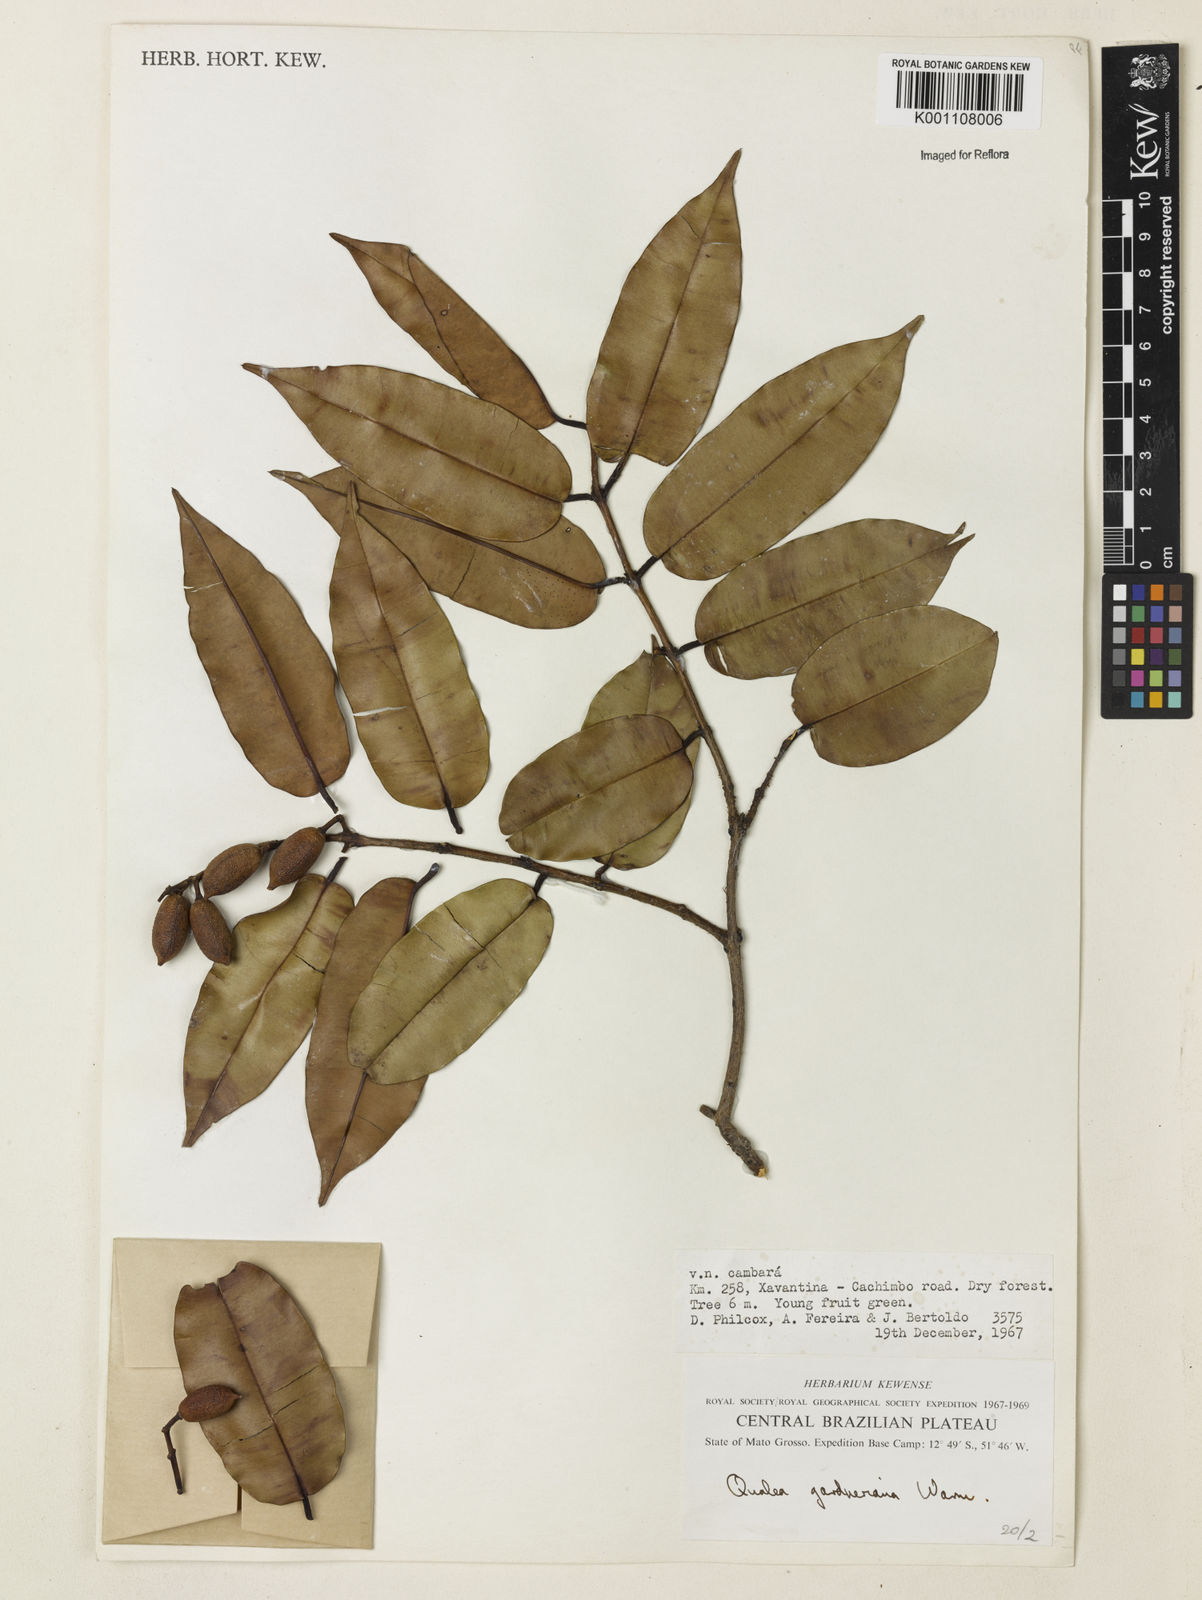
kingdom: Plantae
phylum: Tracheophyta
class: Magnoliopsida
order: Myrtales
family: Vochysiaceae
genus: Ruizterania
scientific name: Ruizterania gardneriana
